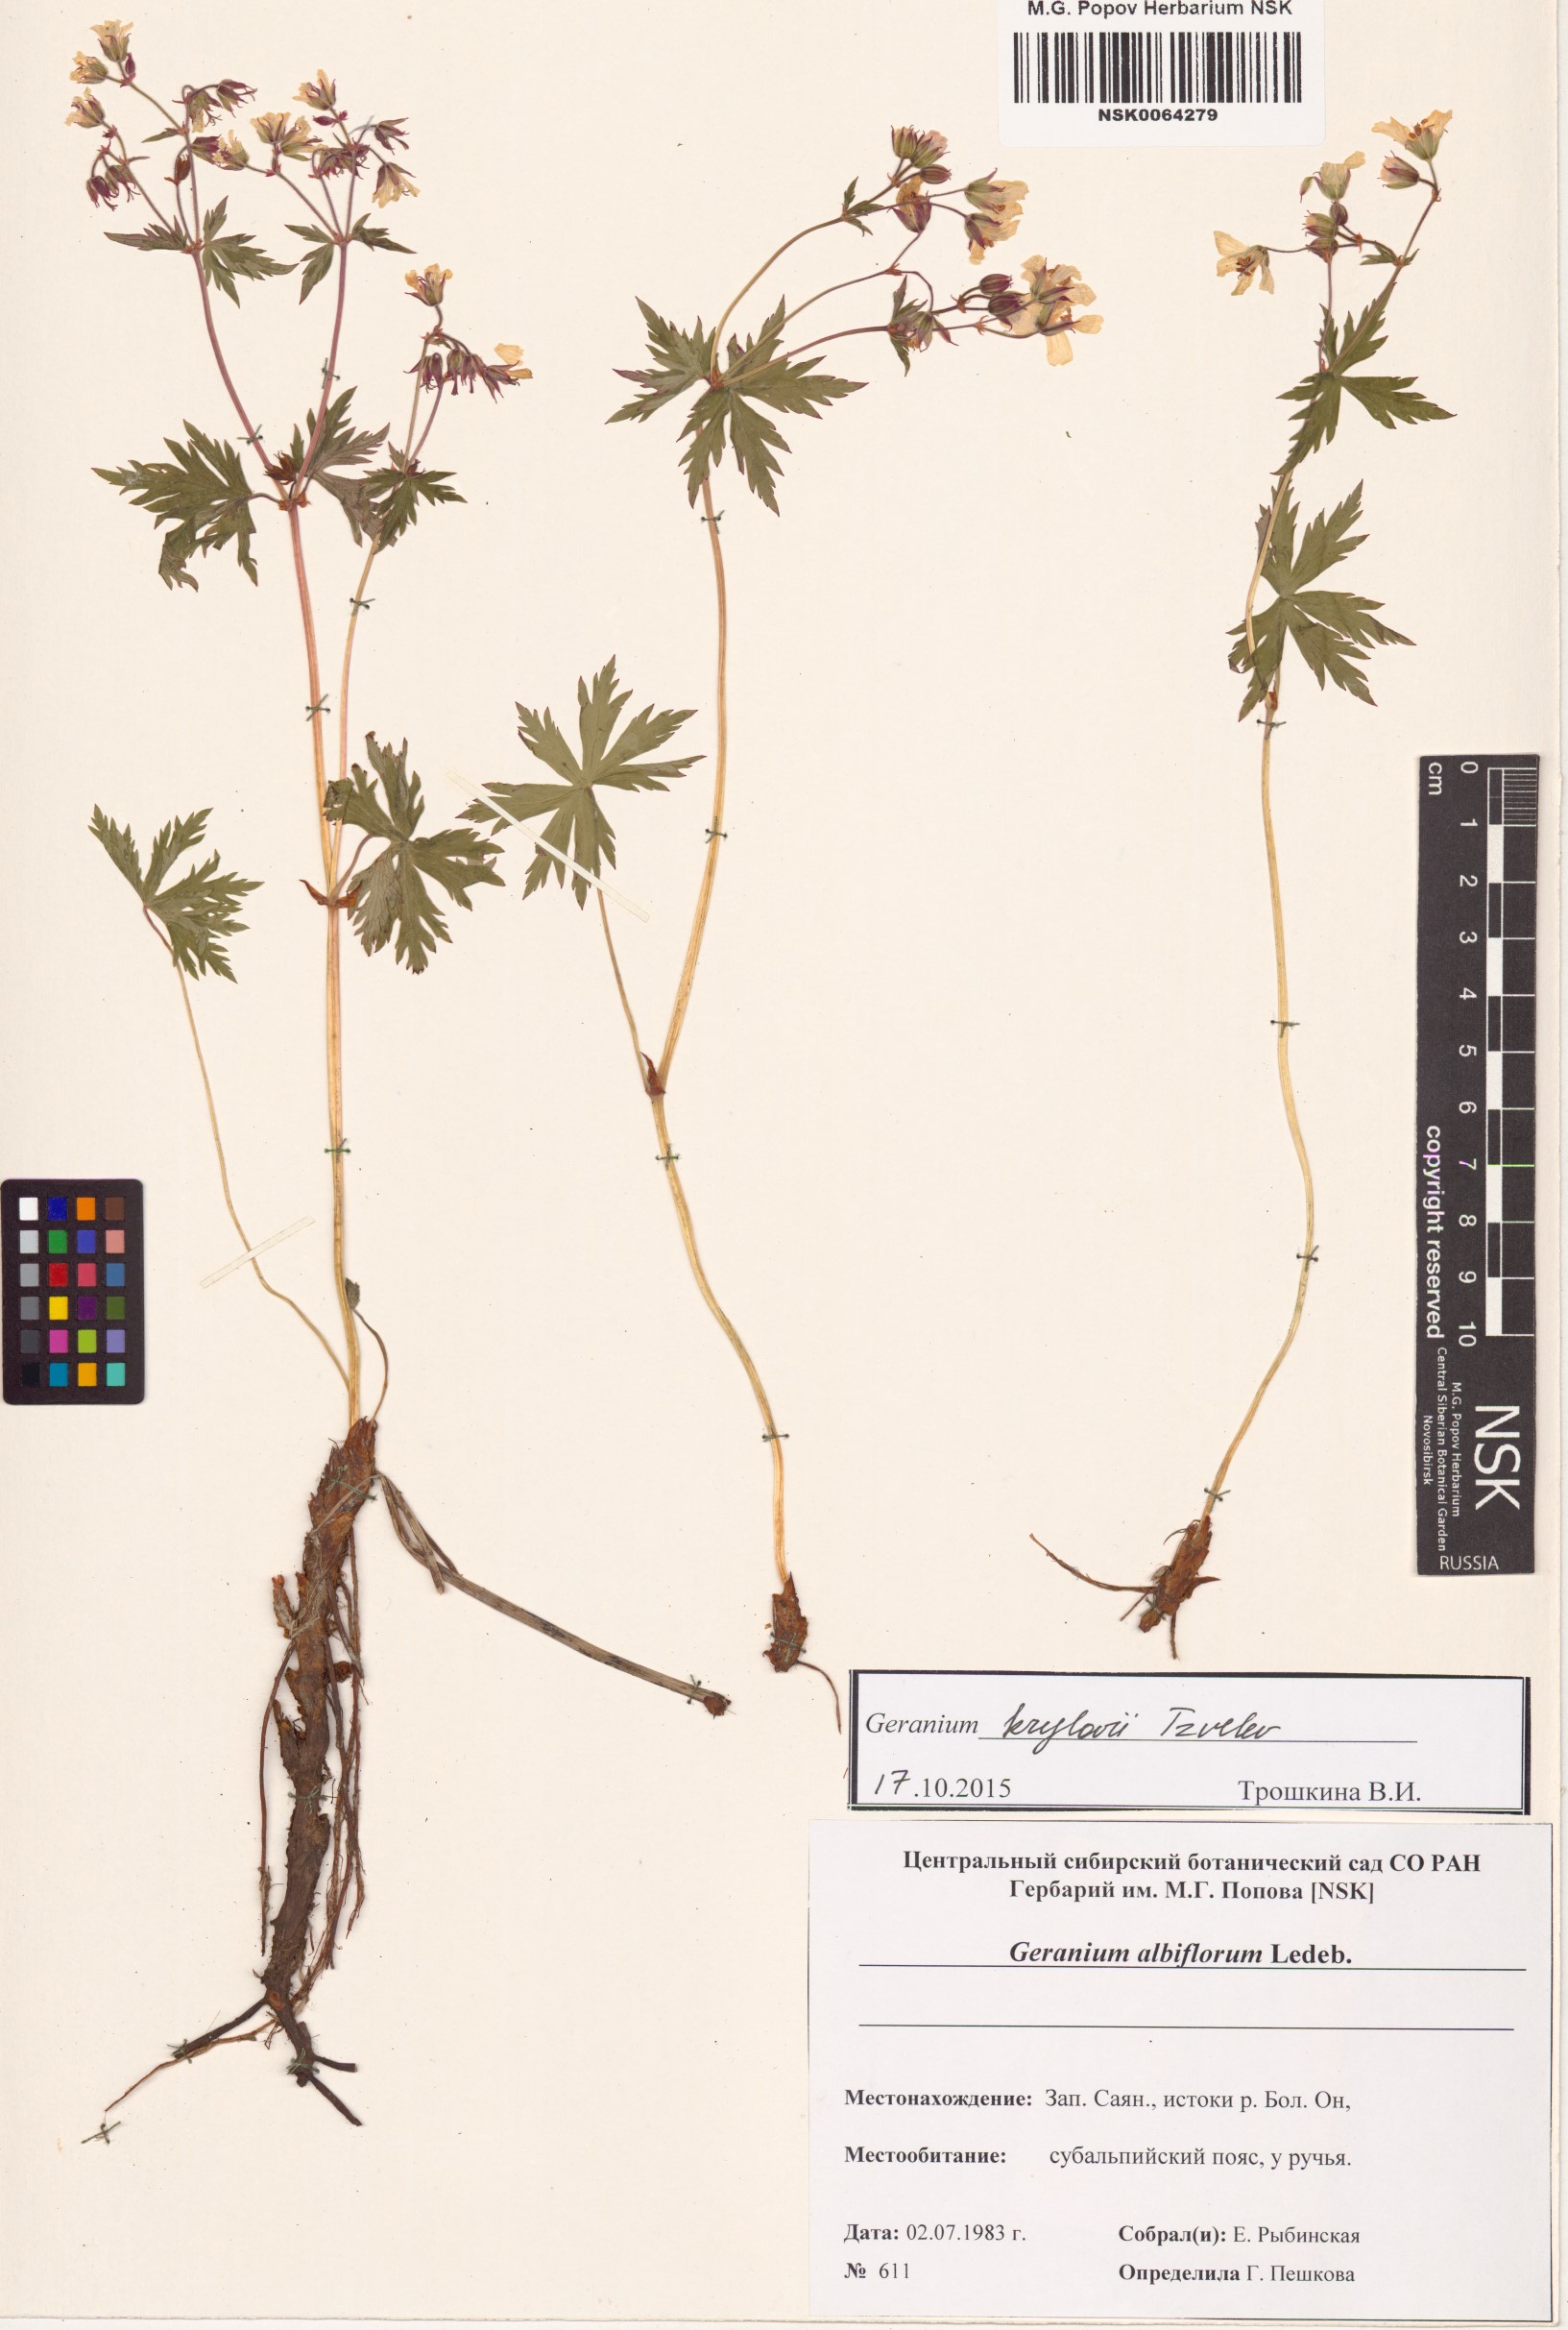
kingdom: Plantae
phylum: Tracheophyta
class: Magnoliopsida
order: Geraniales
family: Geraniaceae
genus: Geranium
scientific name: Geranium sylvaticum
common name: Wood crane's-bill
